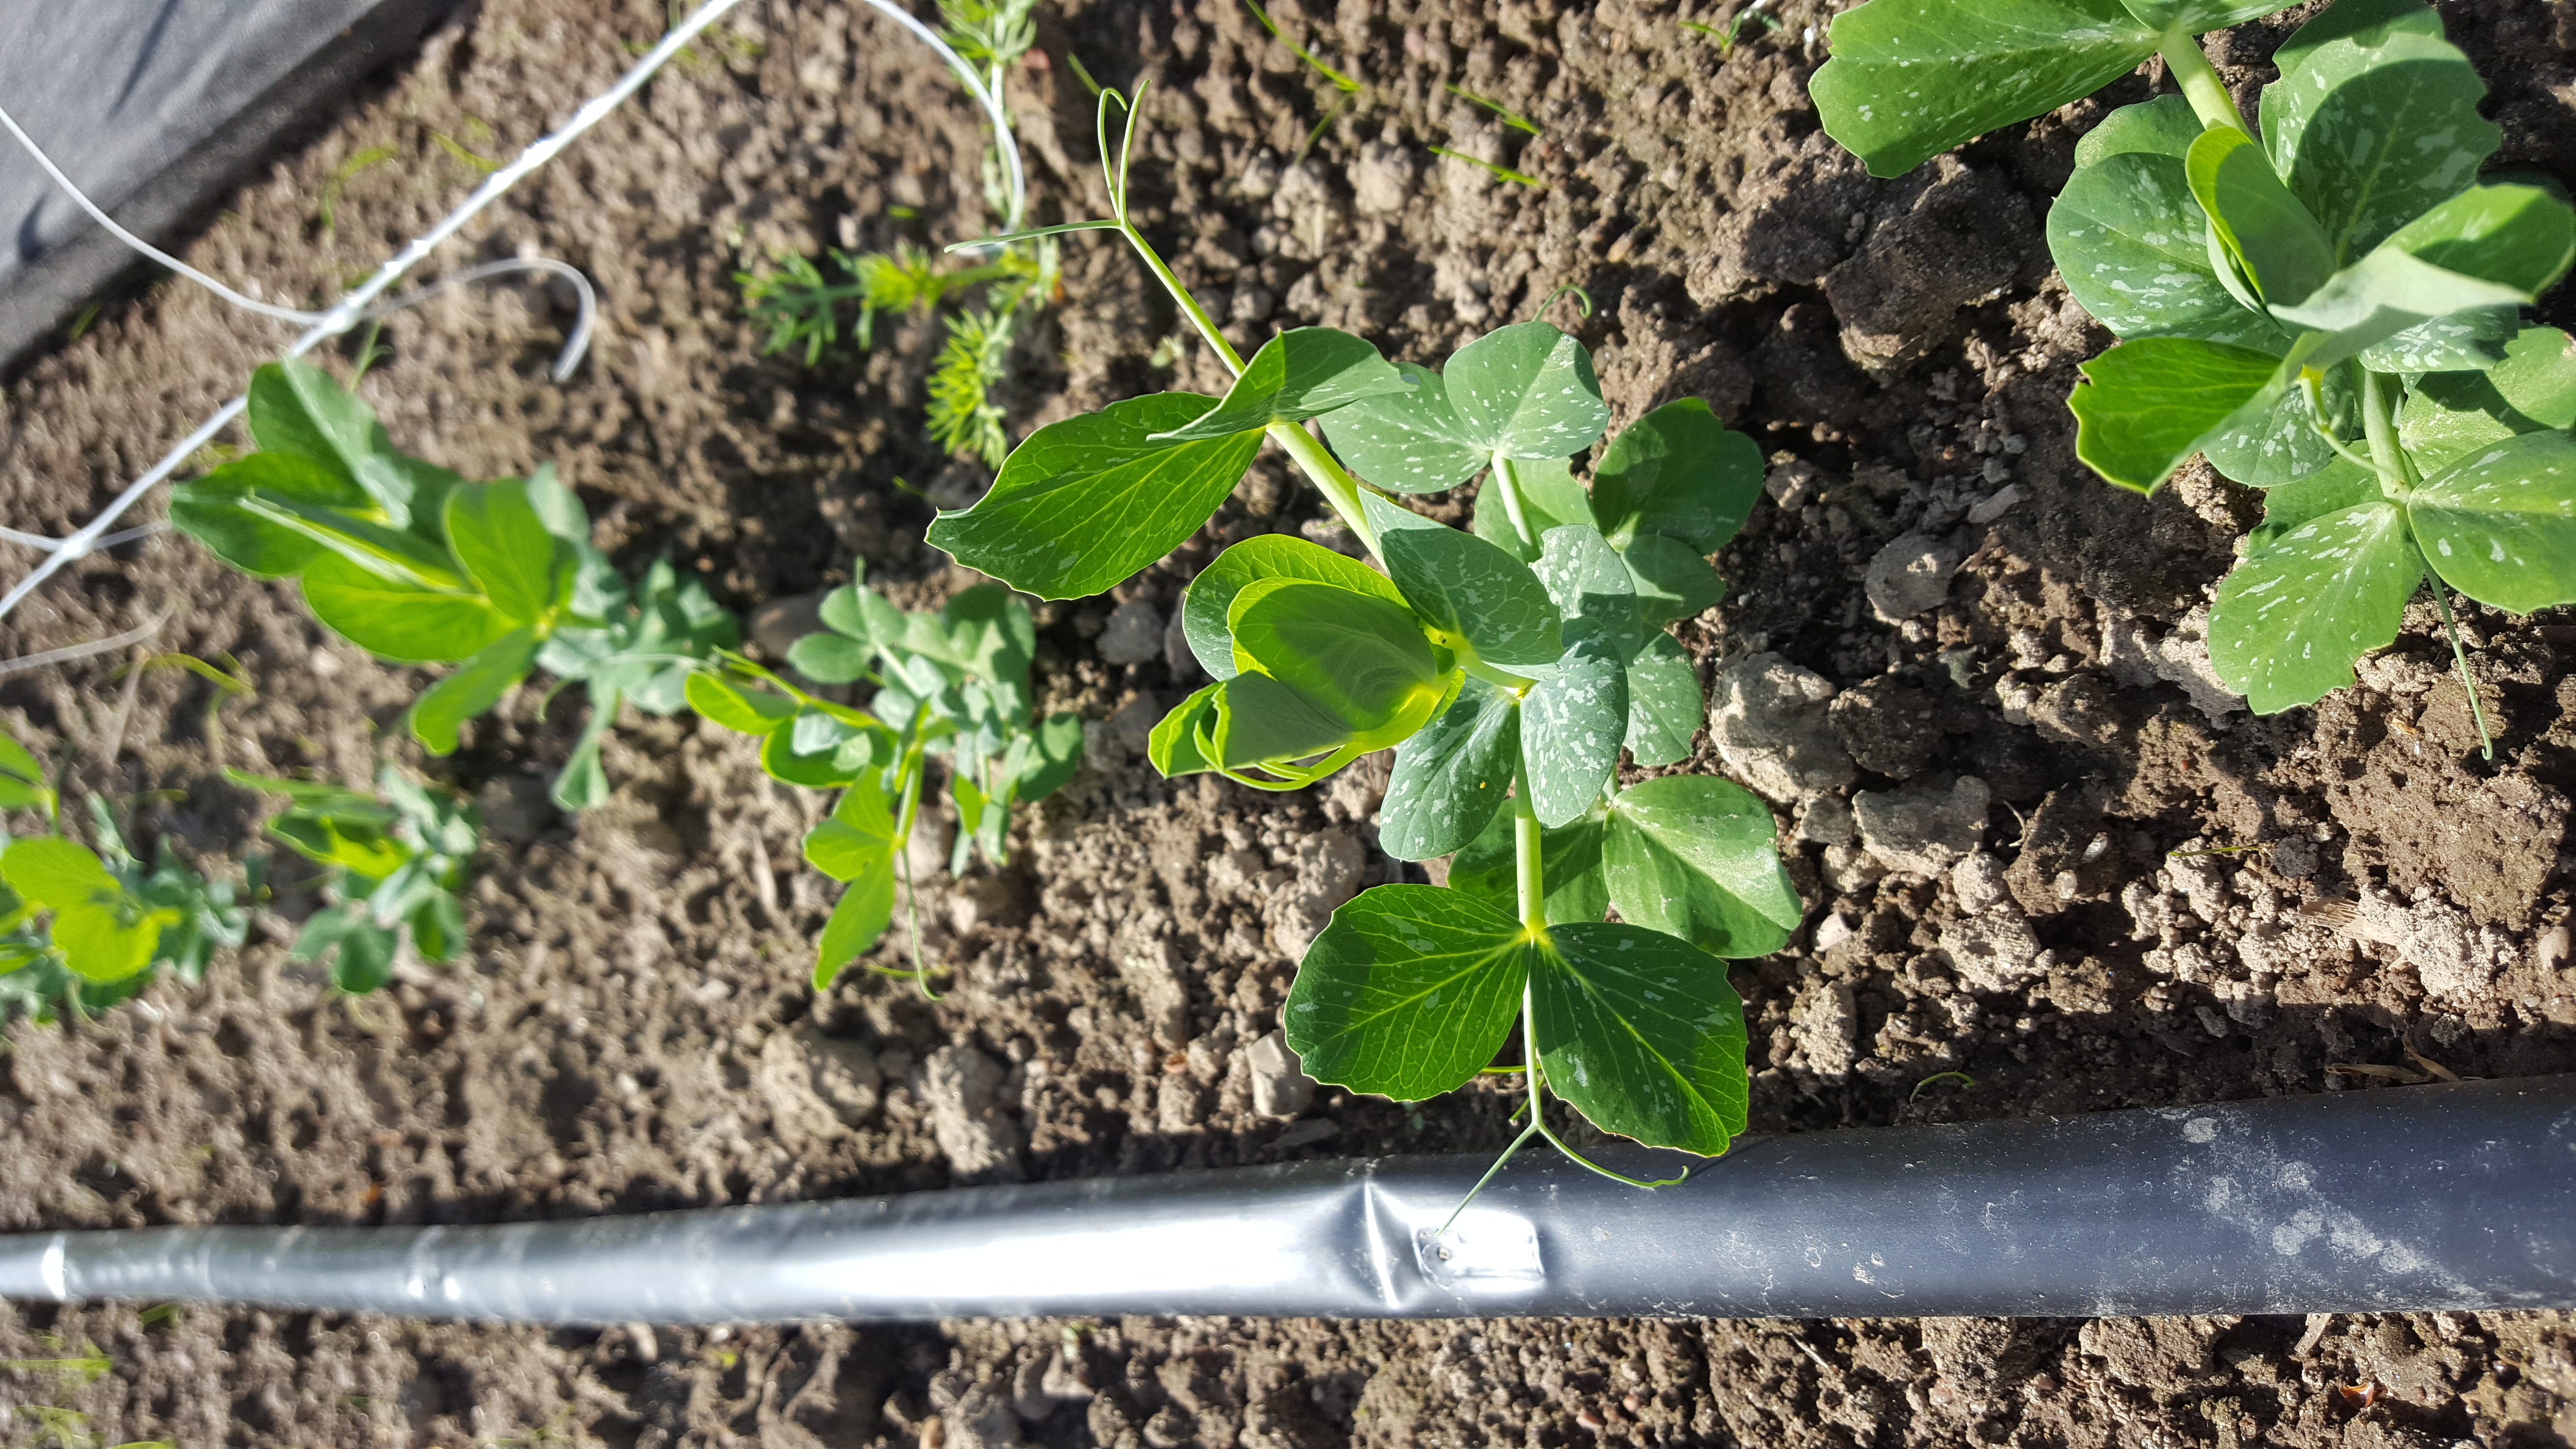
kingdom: Plantae
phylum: Tracheophyta
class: Magnoliopsida
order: Fabales
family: Fabaceae
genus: Lathyrus
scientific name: Lathyrus oleraceus
